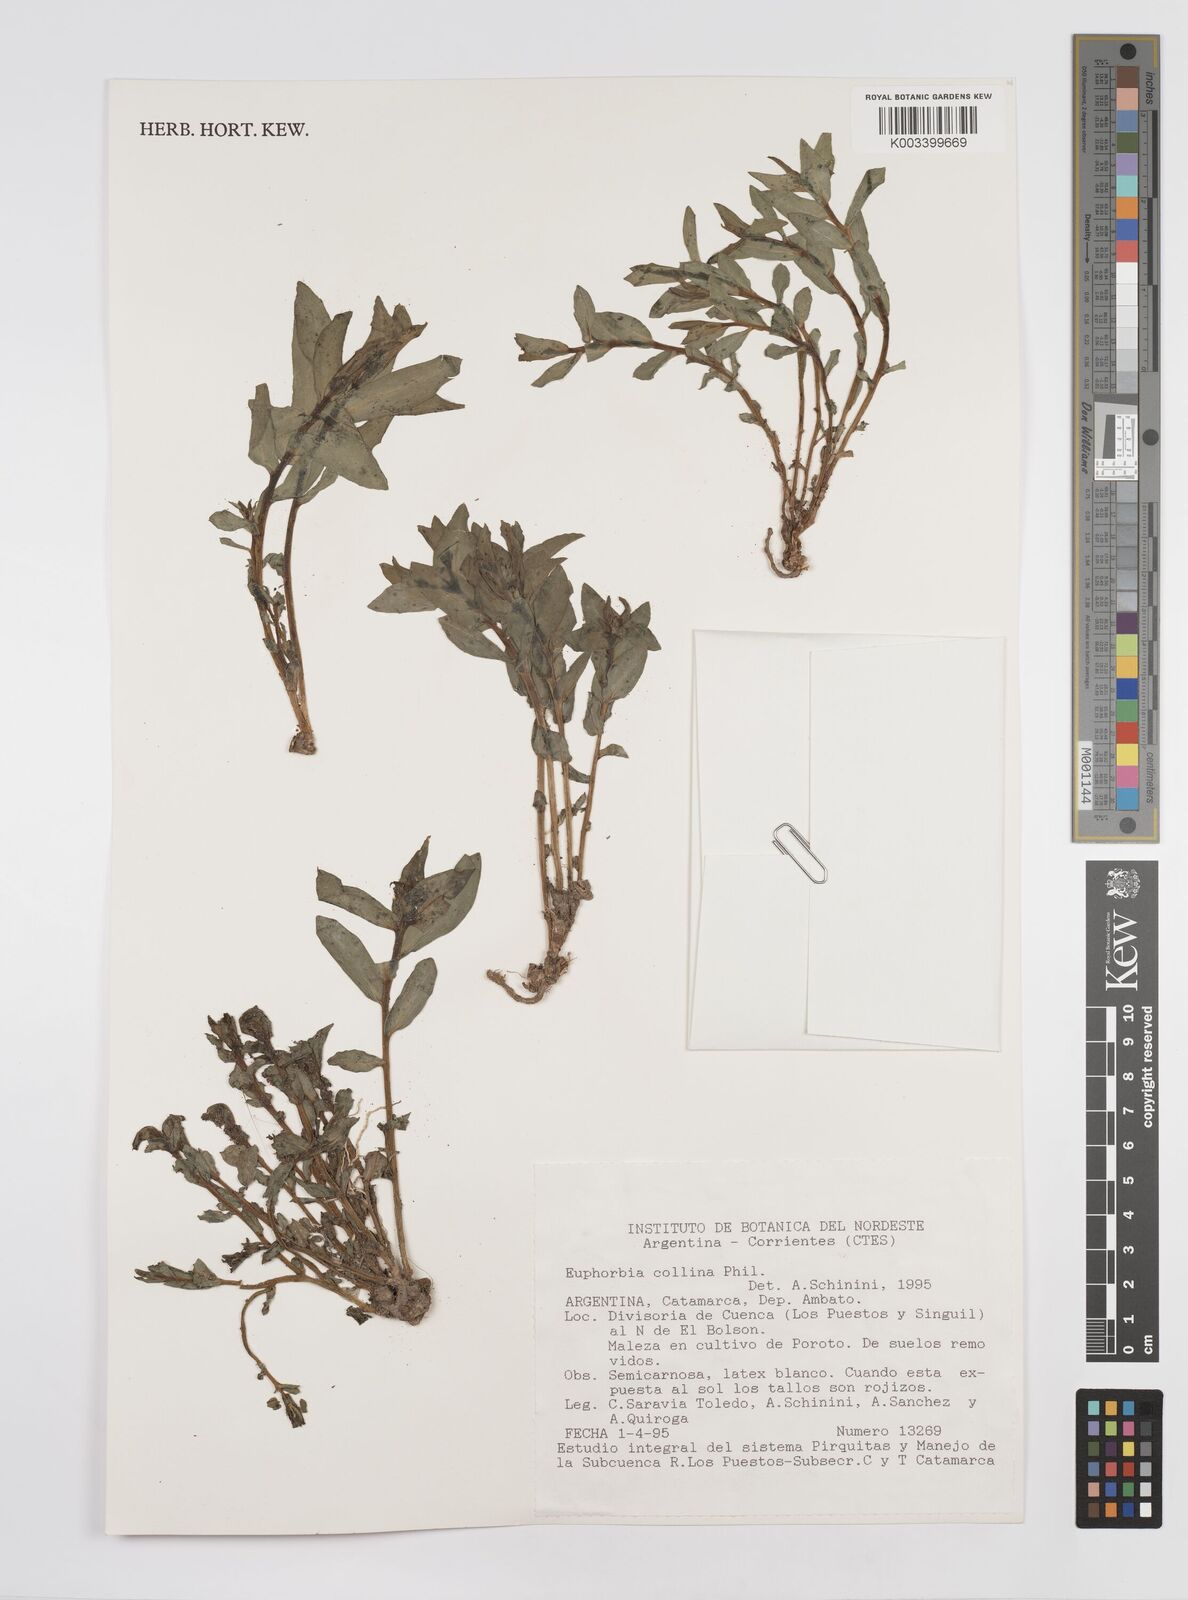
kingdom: Plantae
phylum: Tracheophyta
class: Magnoliopsida
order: Malpighiales
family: Euphorbiaceae
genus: Euphorbia
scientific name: Euphorbia
